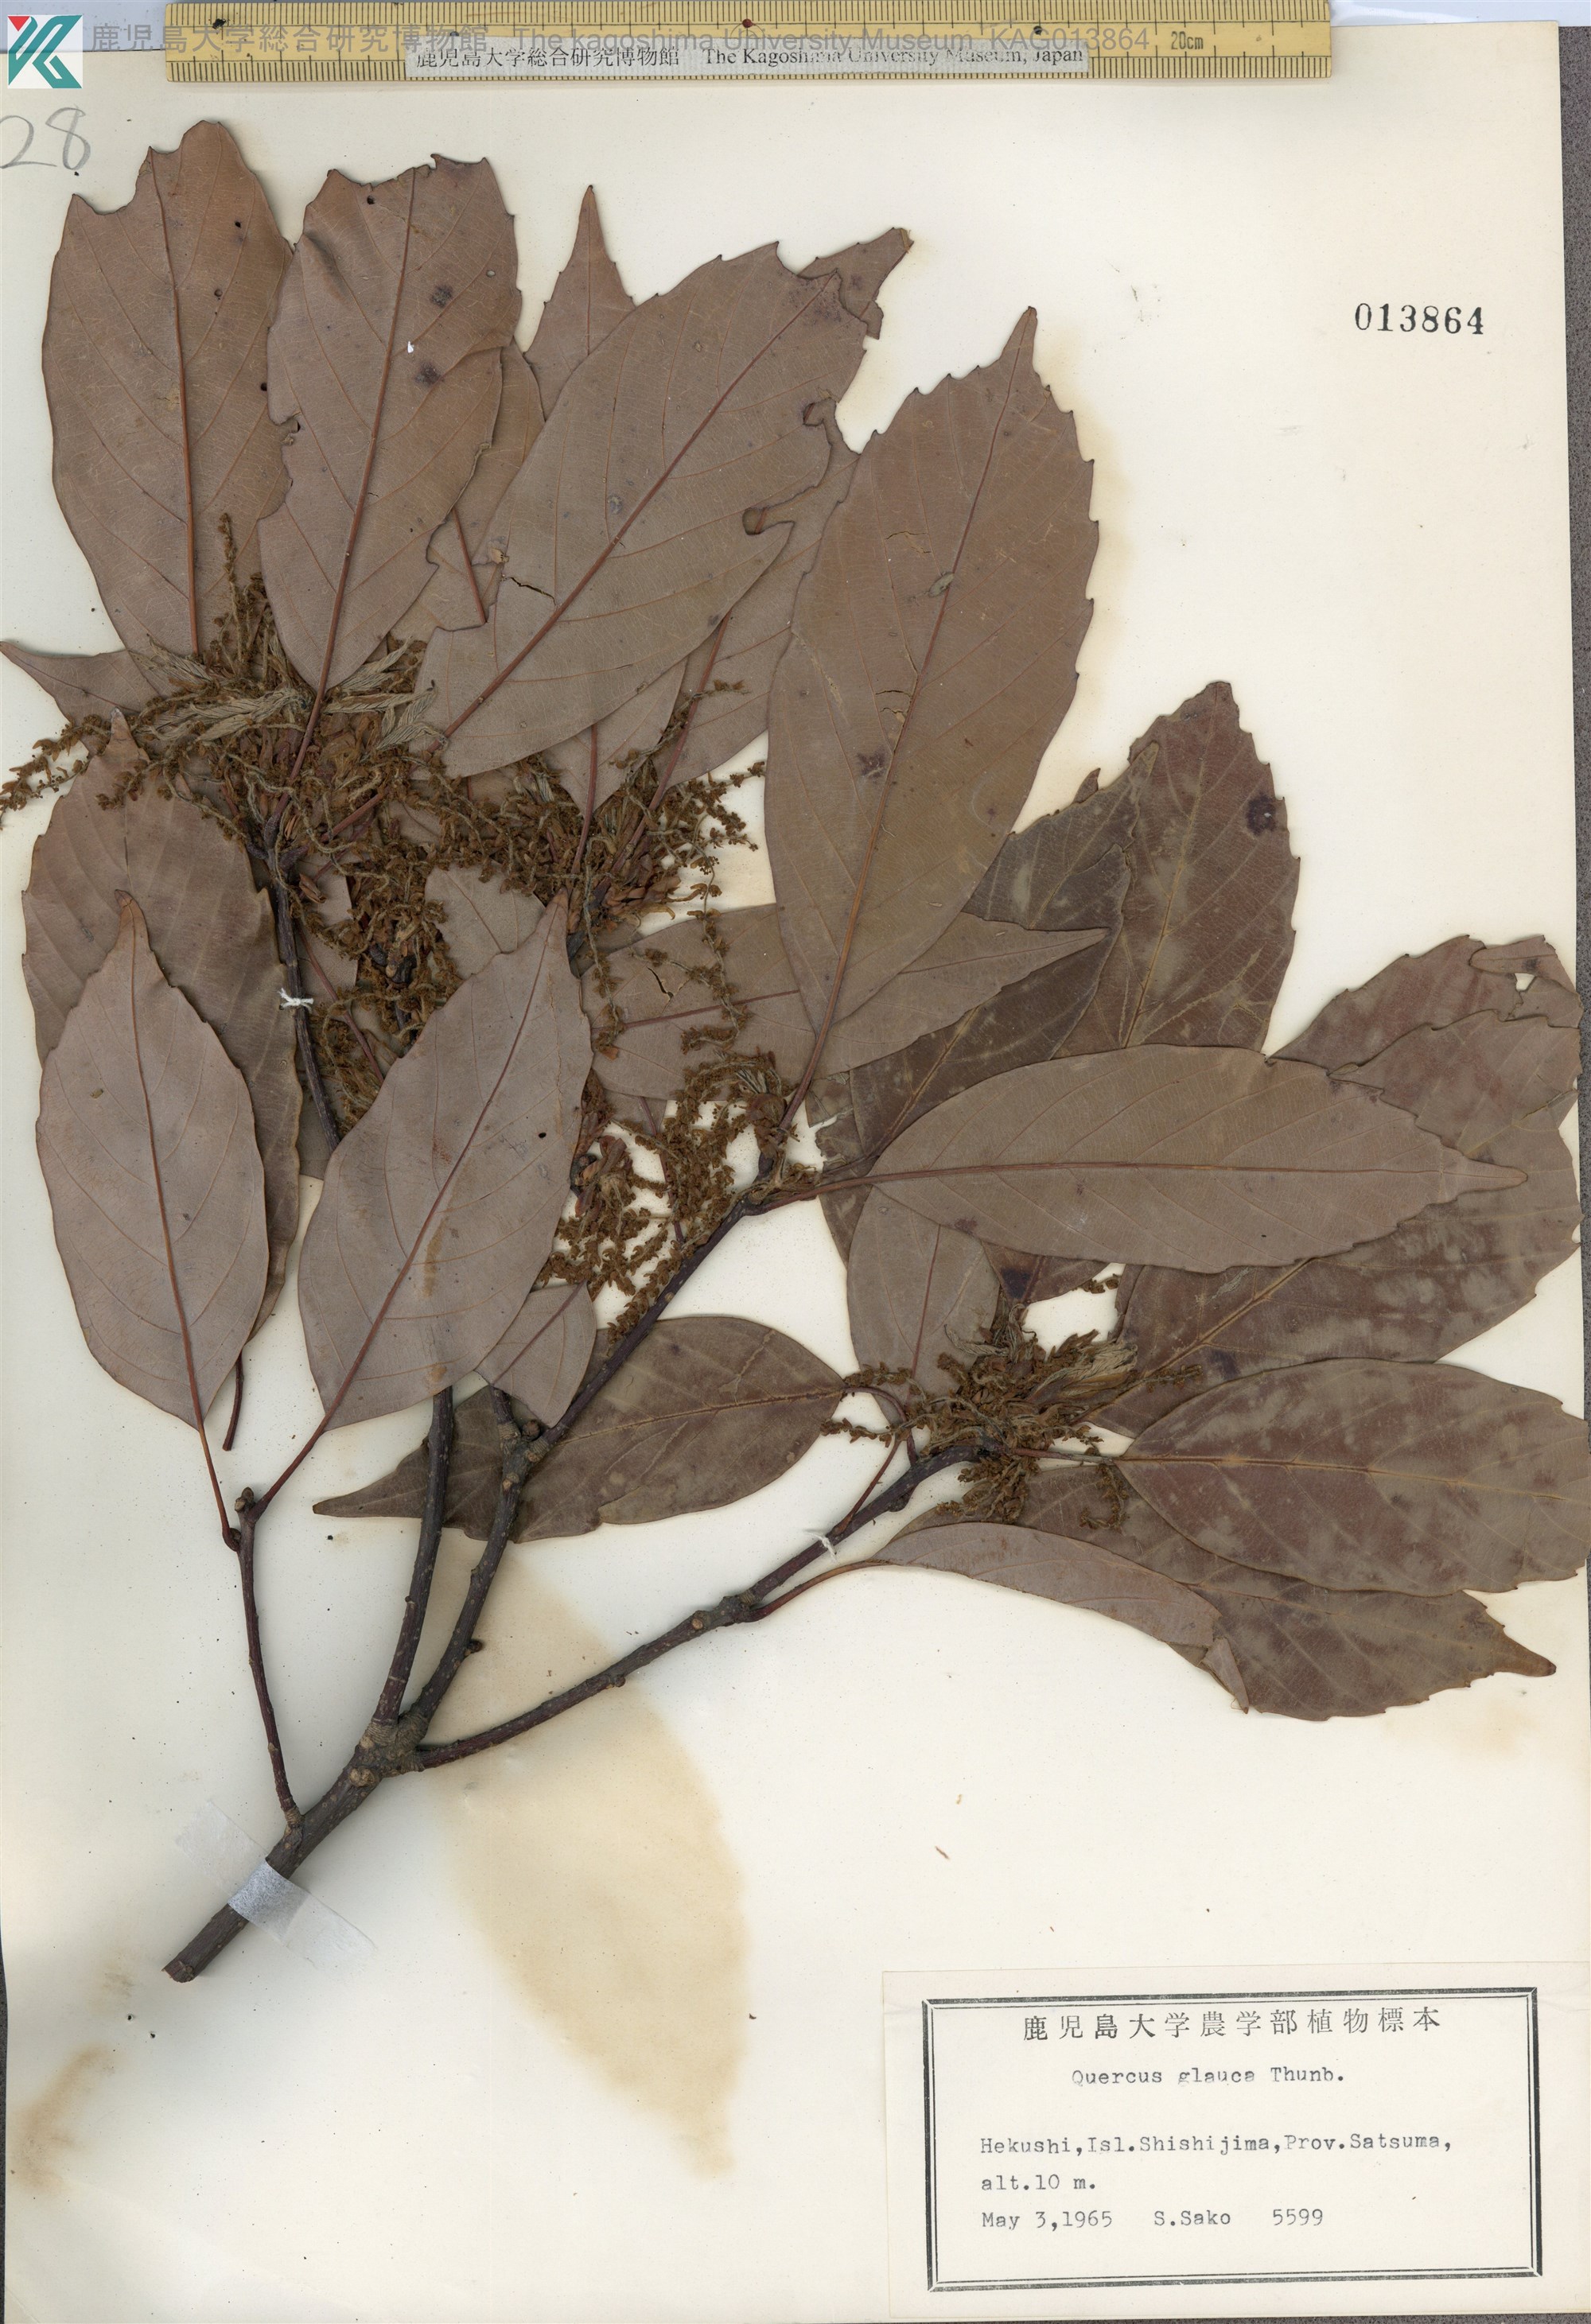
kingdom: Plantae
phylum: Tracheophyta
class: Magnoliopsida
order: Fagales
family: Fagaceae
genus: Quercus
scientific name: Quercus glauca
